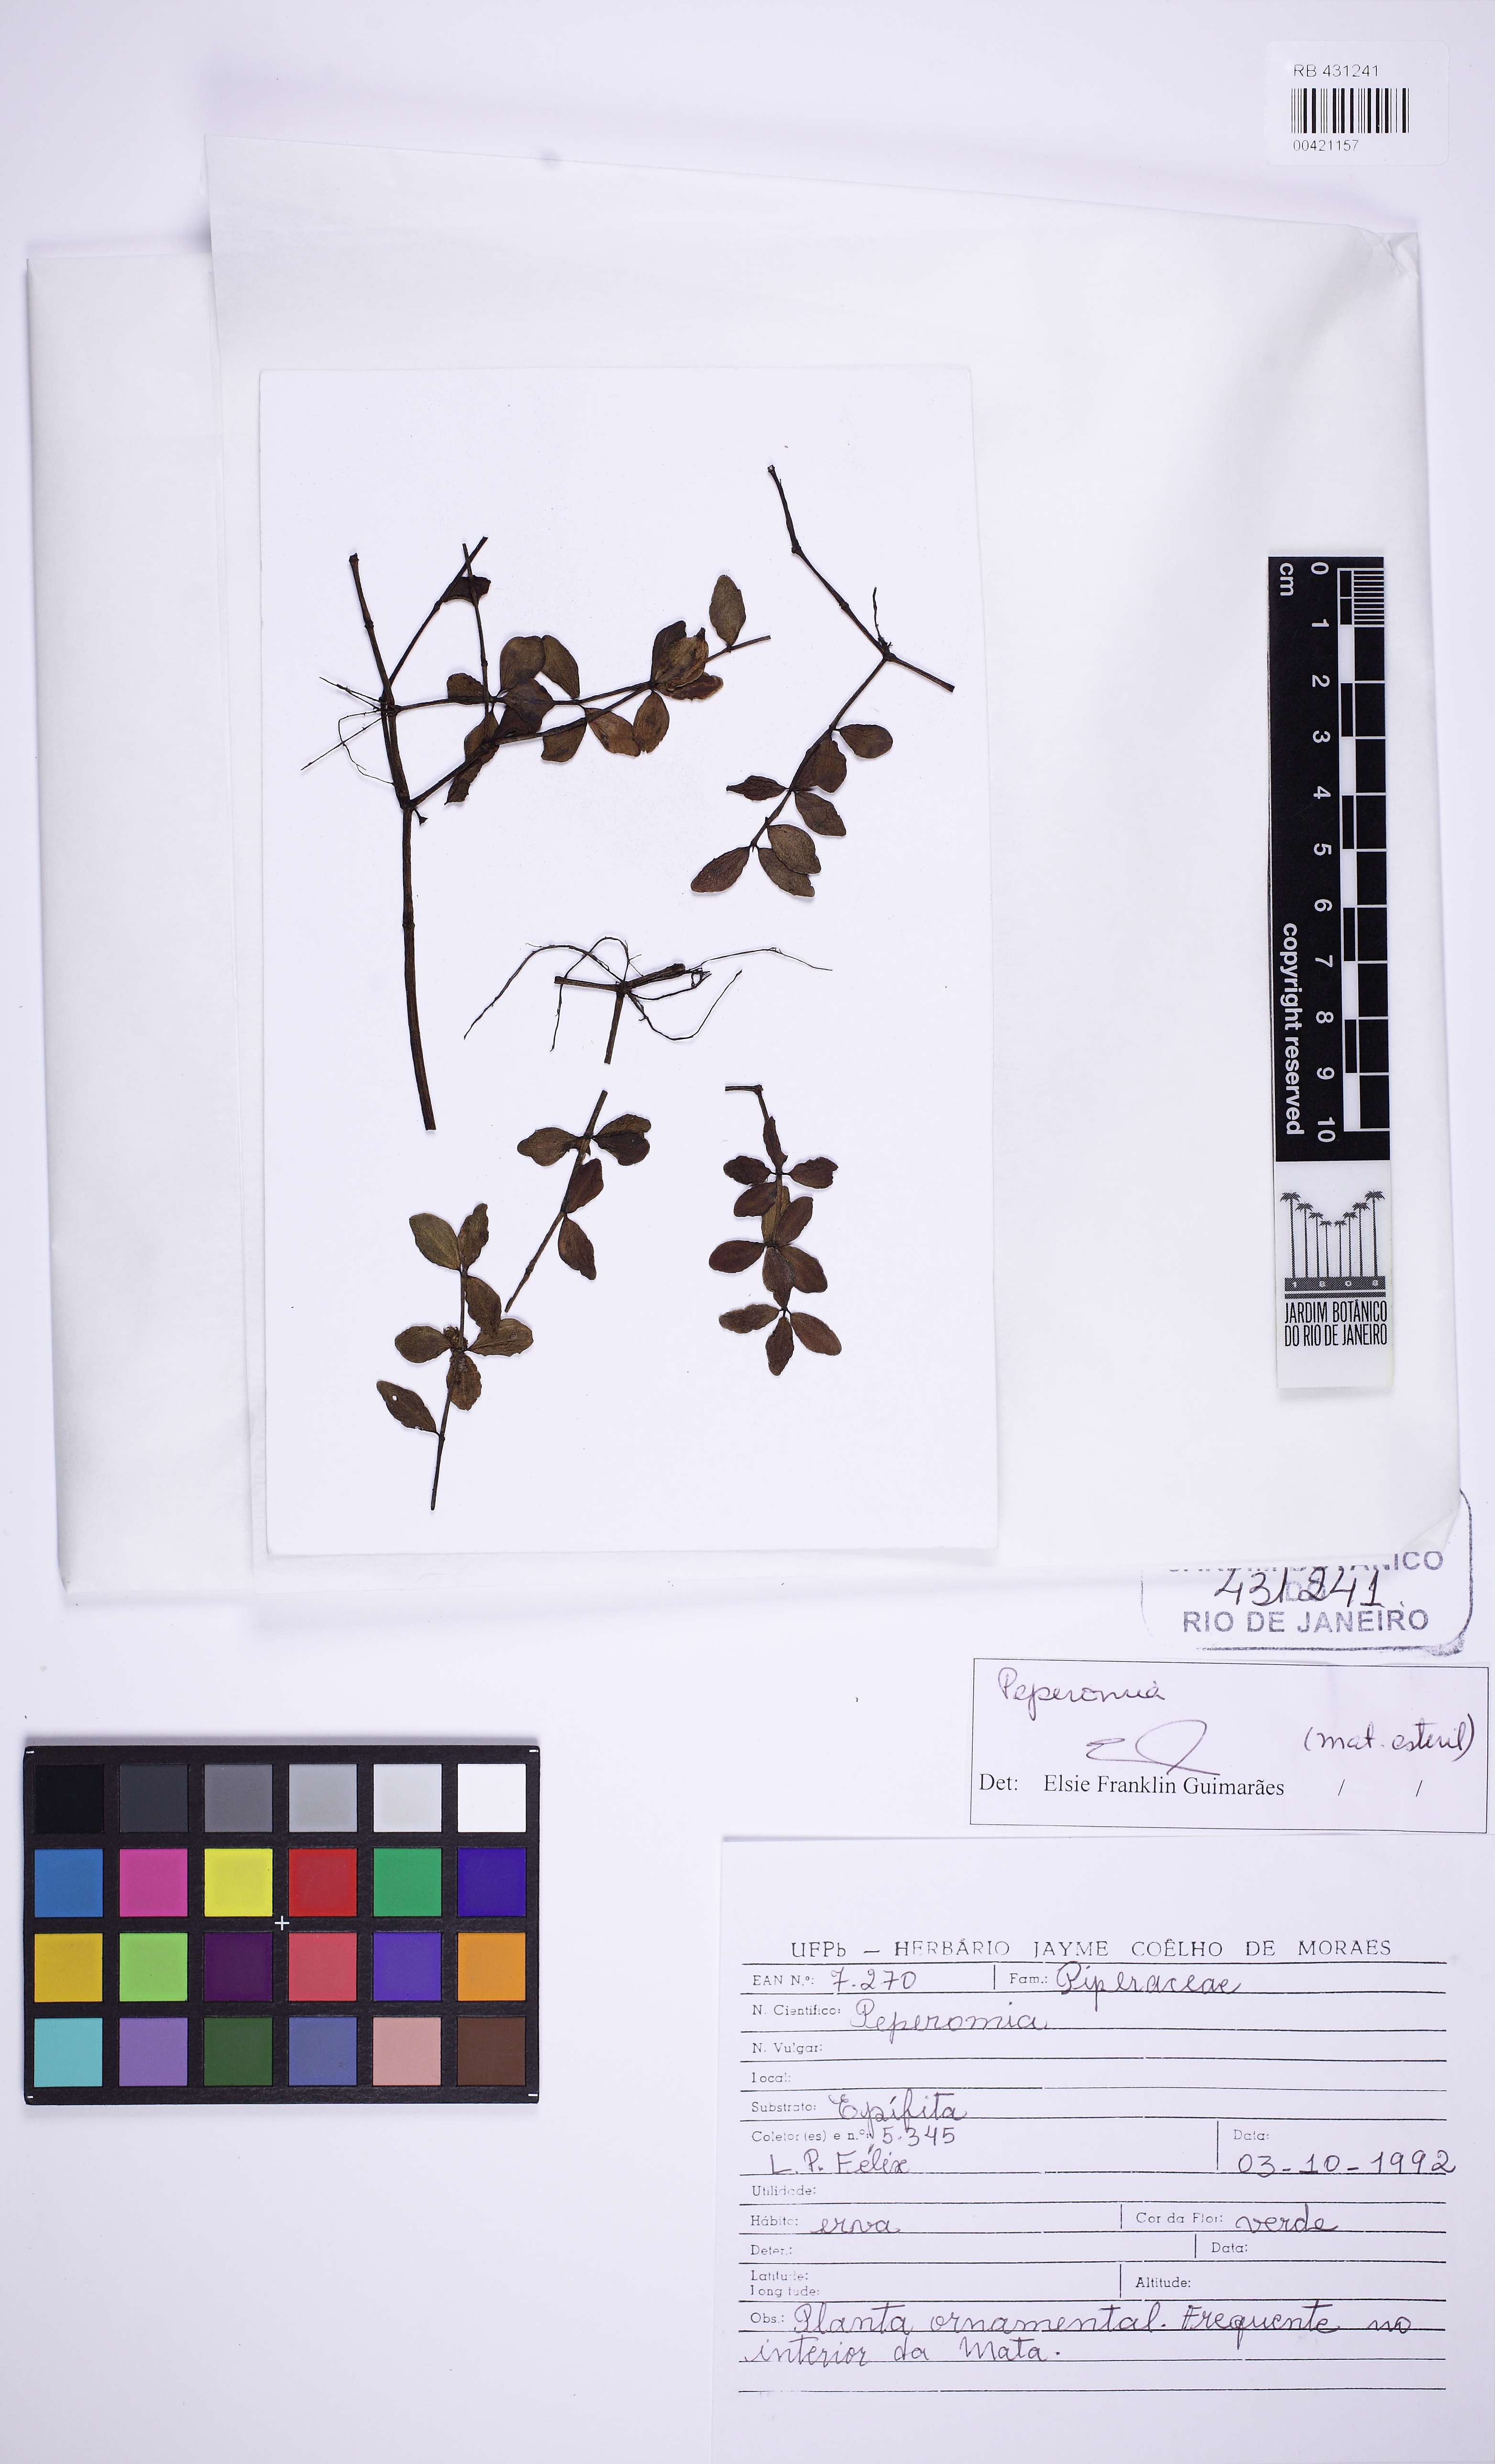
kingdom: Plantae
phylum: Tracheophyta
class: Magnoliopsida
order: Piperales
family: Piperaceae
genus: Peperomia
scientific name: Peperomia tetraphylla
